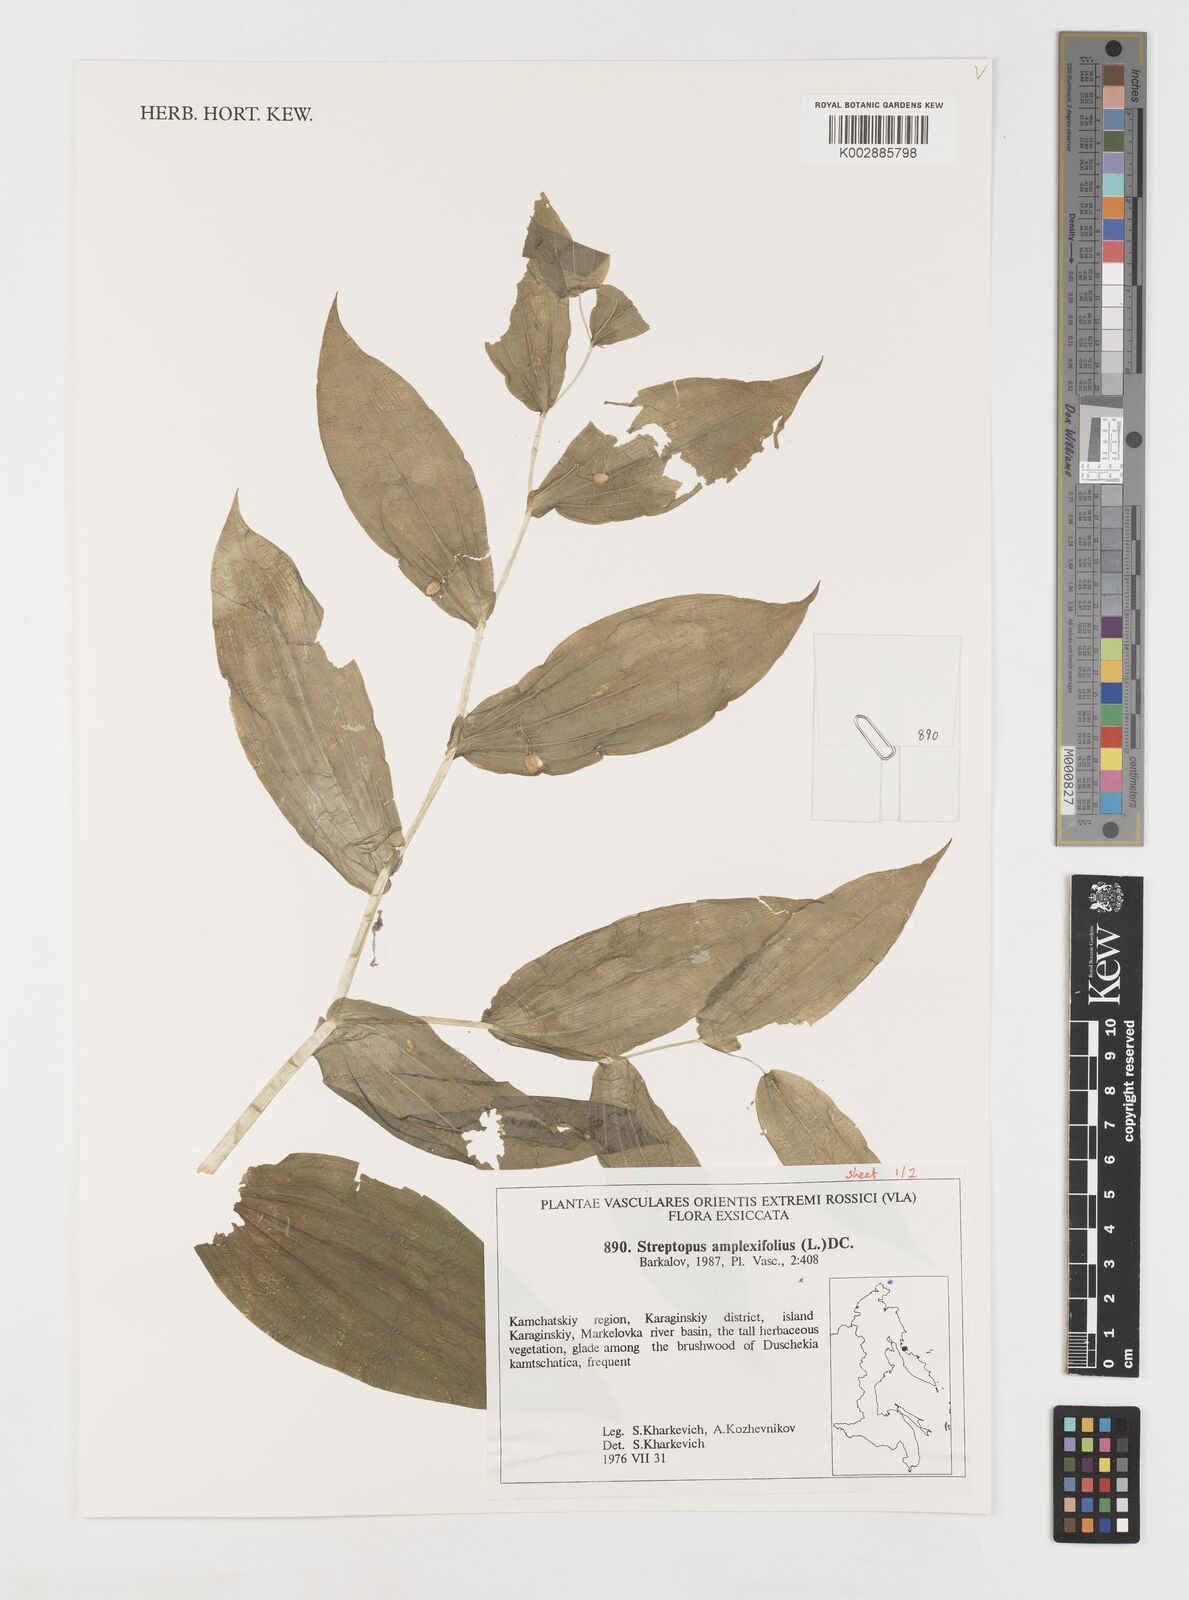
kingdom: Plantae
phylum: Tracheophyta
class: Liliopsida
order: Liliales
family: Liliaceae
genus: Streptopus
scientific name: Streptopus amplexifolius
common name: Clasp twisted stalk
